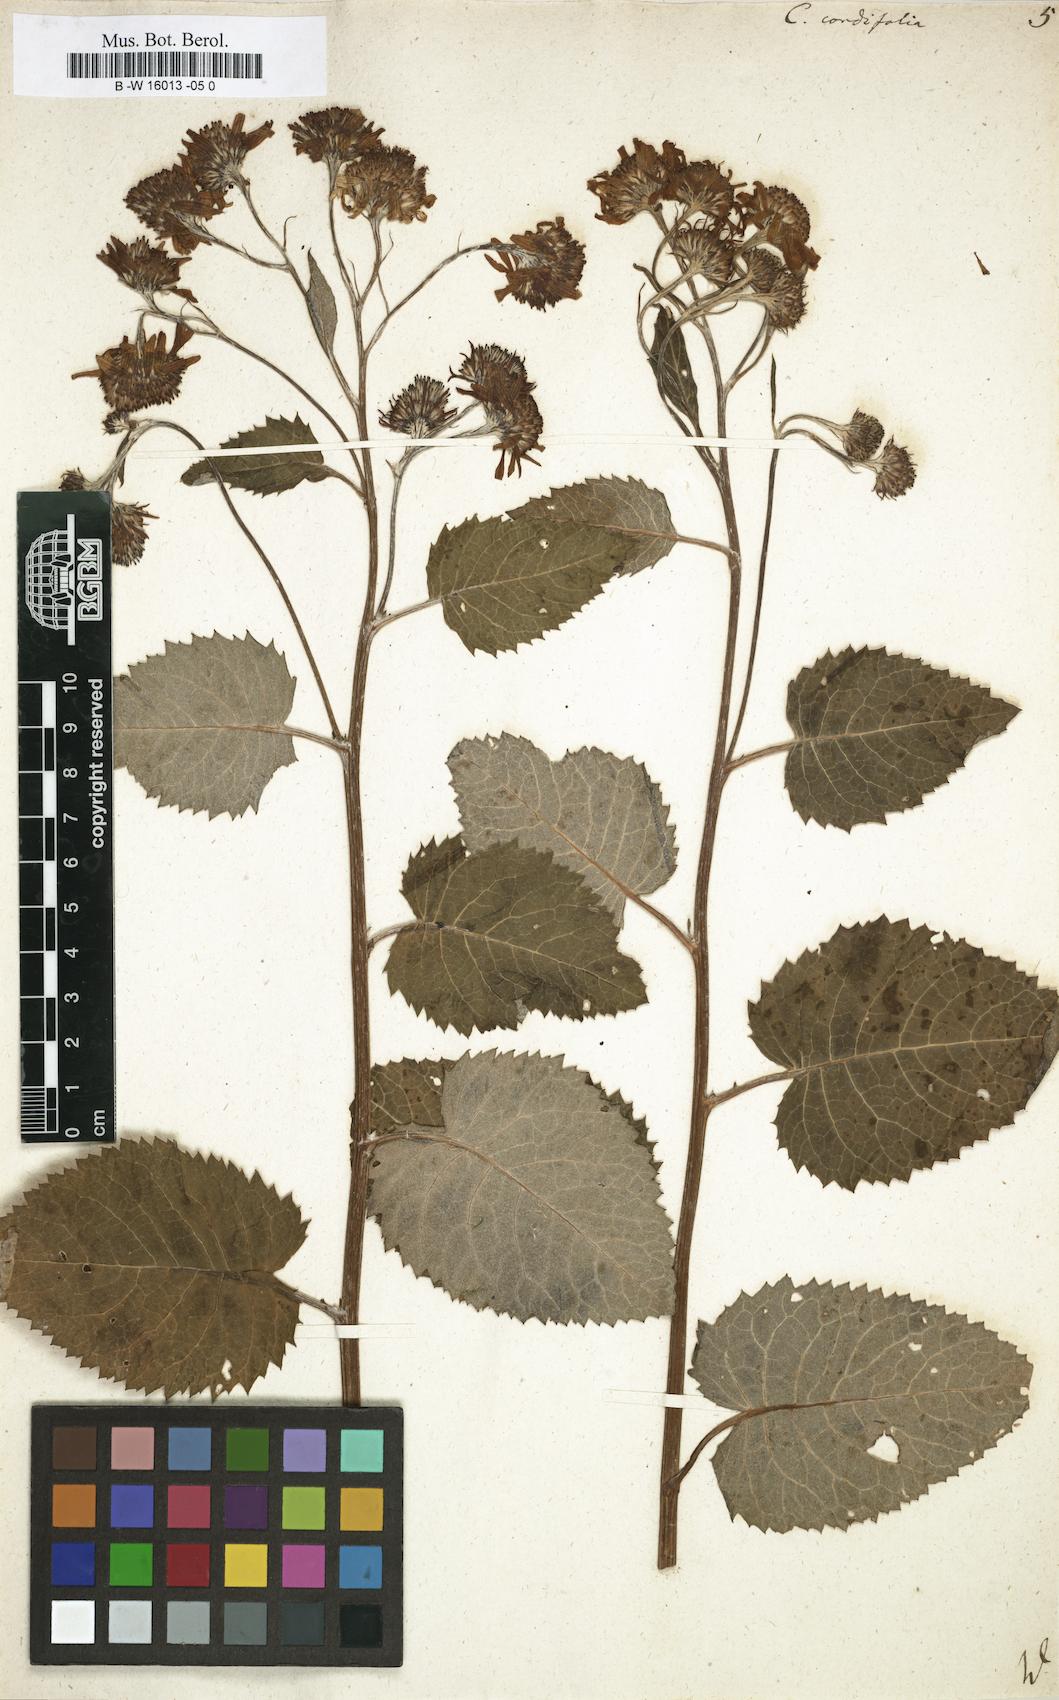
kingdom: Plantae
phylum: Tracheophyta
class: Magnoliopsida
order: Asterales
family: Asteraceae
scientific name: Asteraceae
